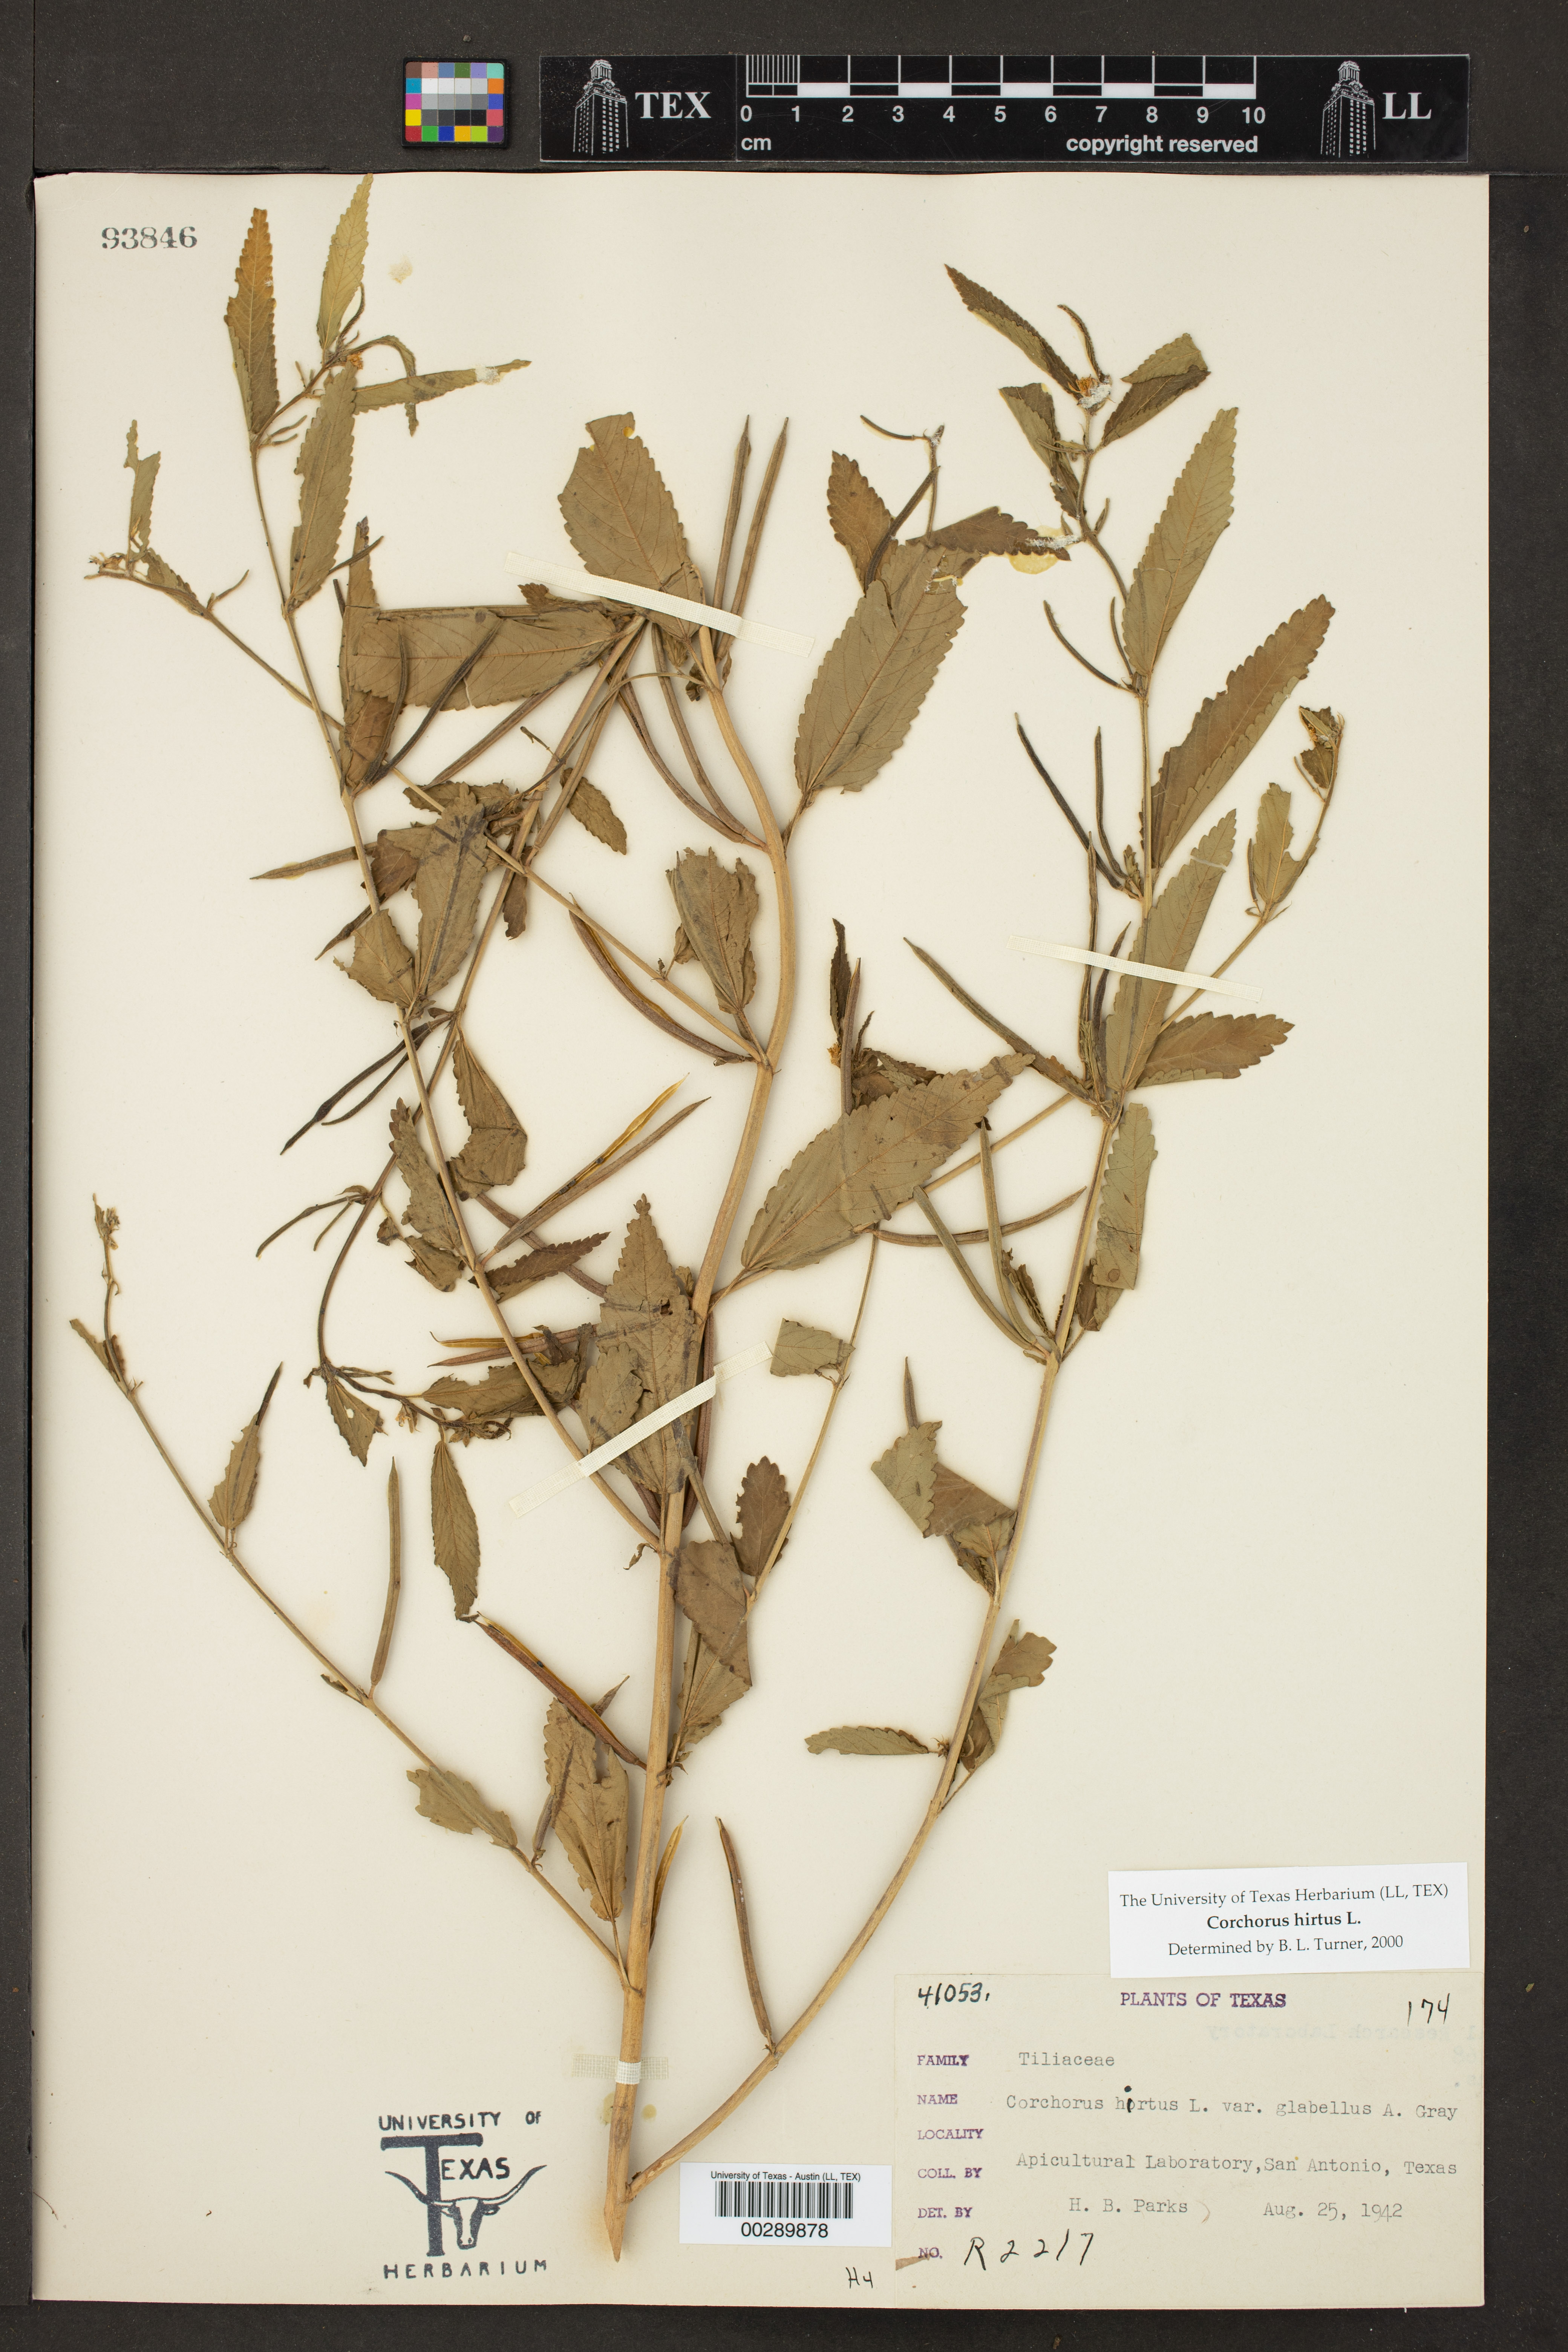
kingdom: Plantae
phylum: Tracheophyta
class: Magnoliopsida
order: Malvales
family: Malvaceae
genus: Corchorus
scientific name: Corchorus hirtus
